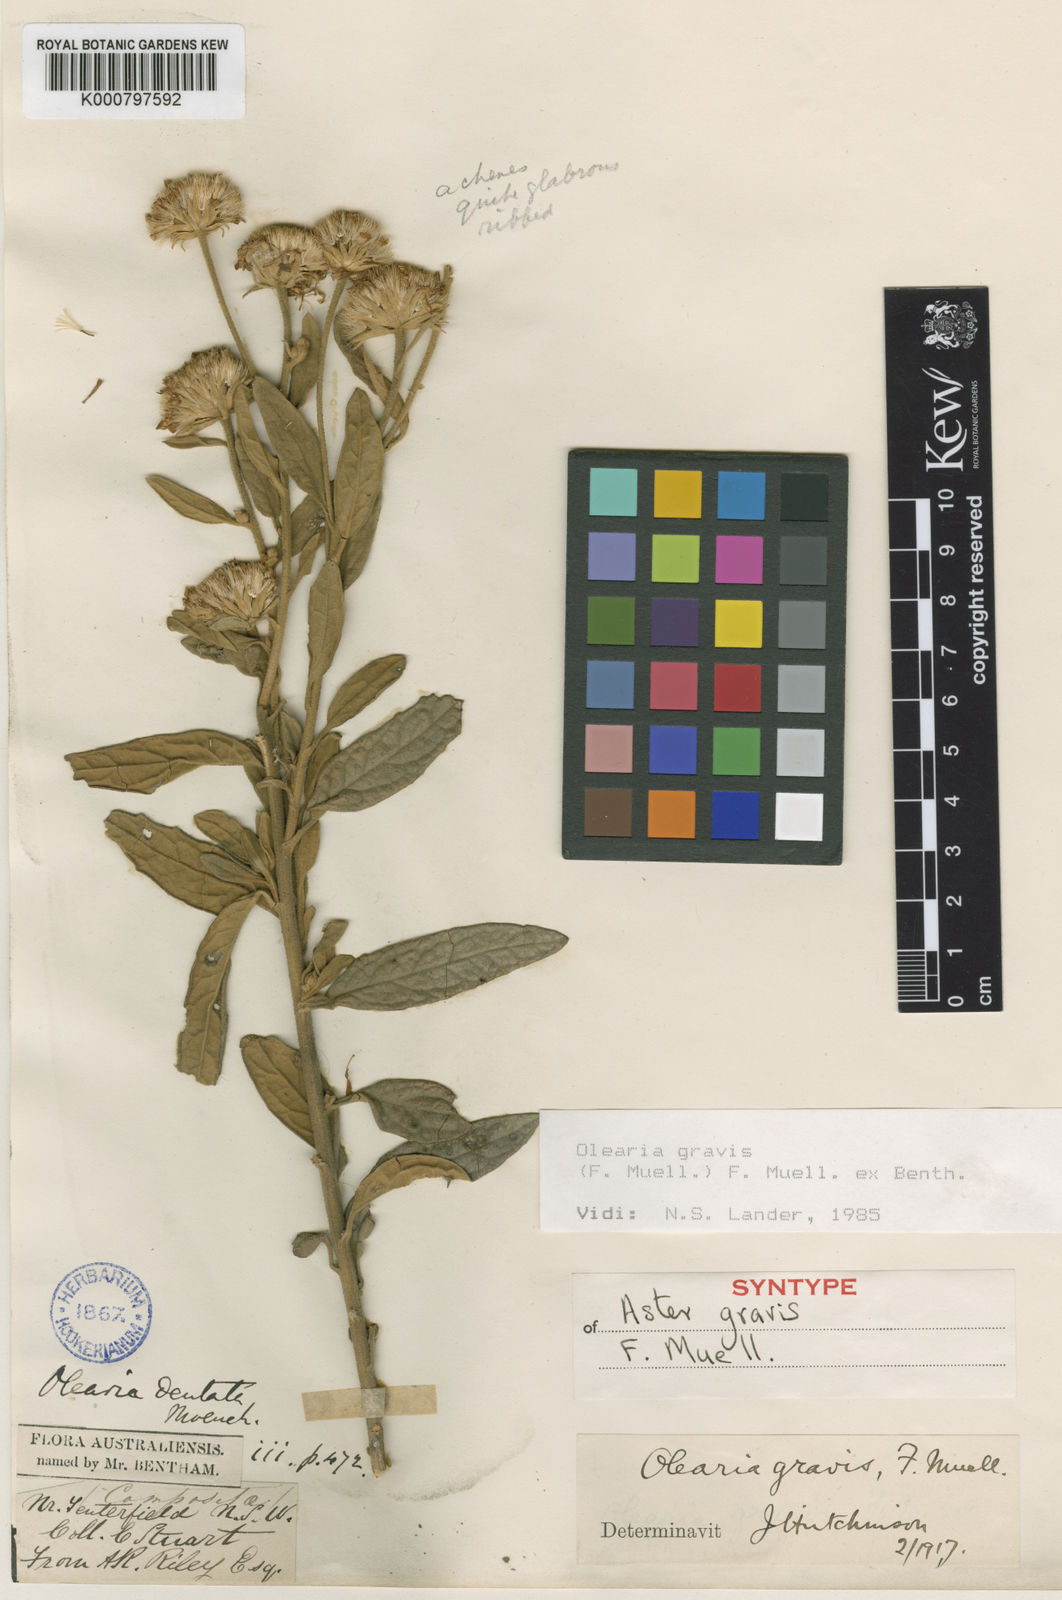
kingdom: Plantae
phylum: Tracheophyta
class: Magnoliopsida
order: Asterales
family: Asteraceae
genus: Olearia
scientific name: Olearia gravis
